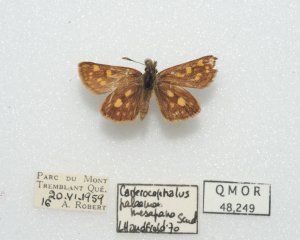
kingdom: Animalia
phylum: Arthropoda
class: Insecta
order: Lepidoptera
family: Hesperiidae
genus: Carterocephalus
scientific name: Carterocephalus palaemon
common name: Chequered Skipper
